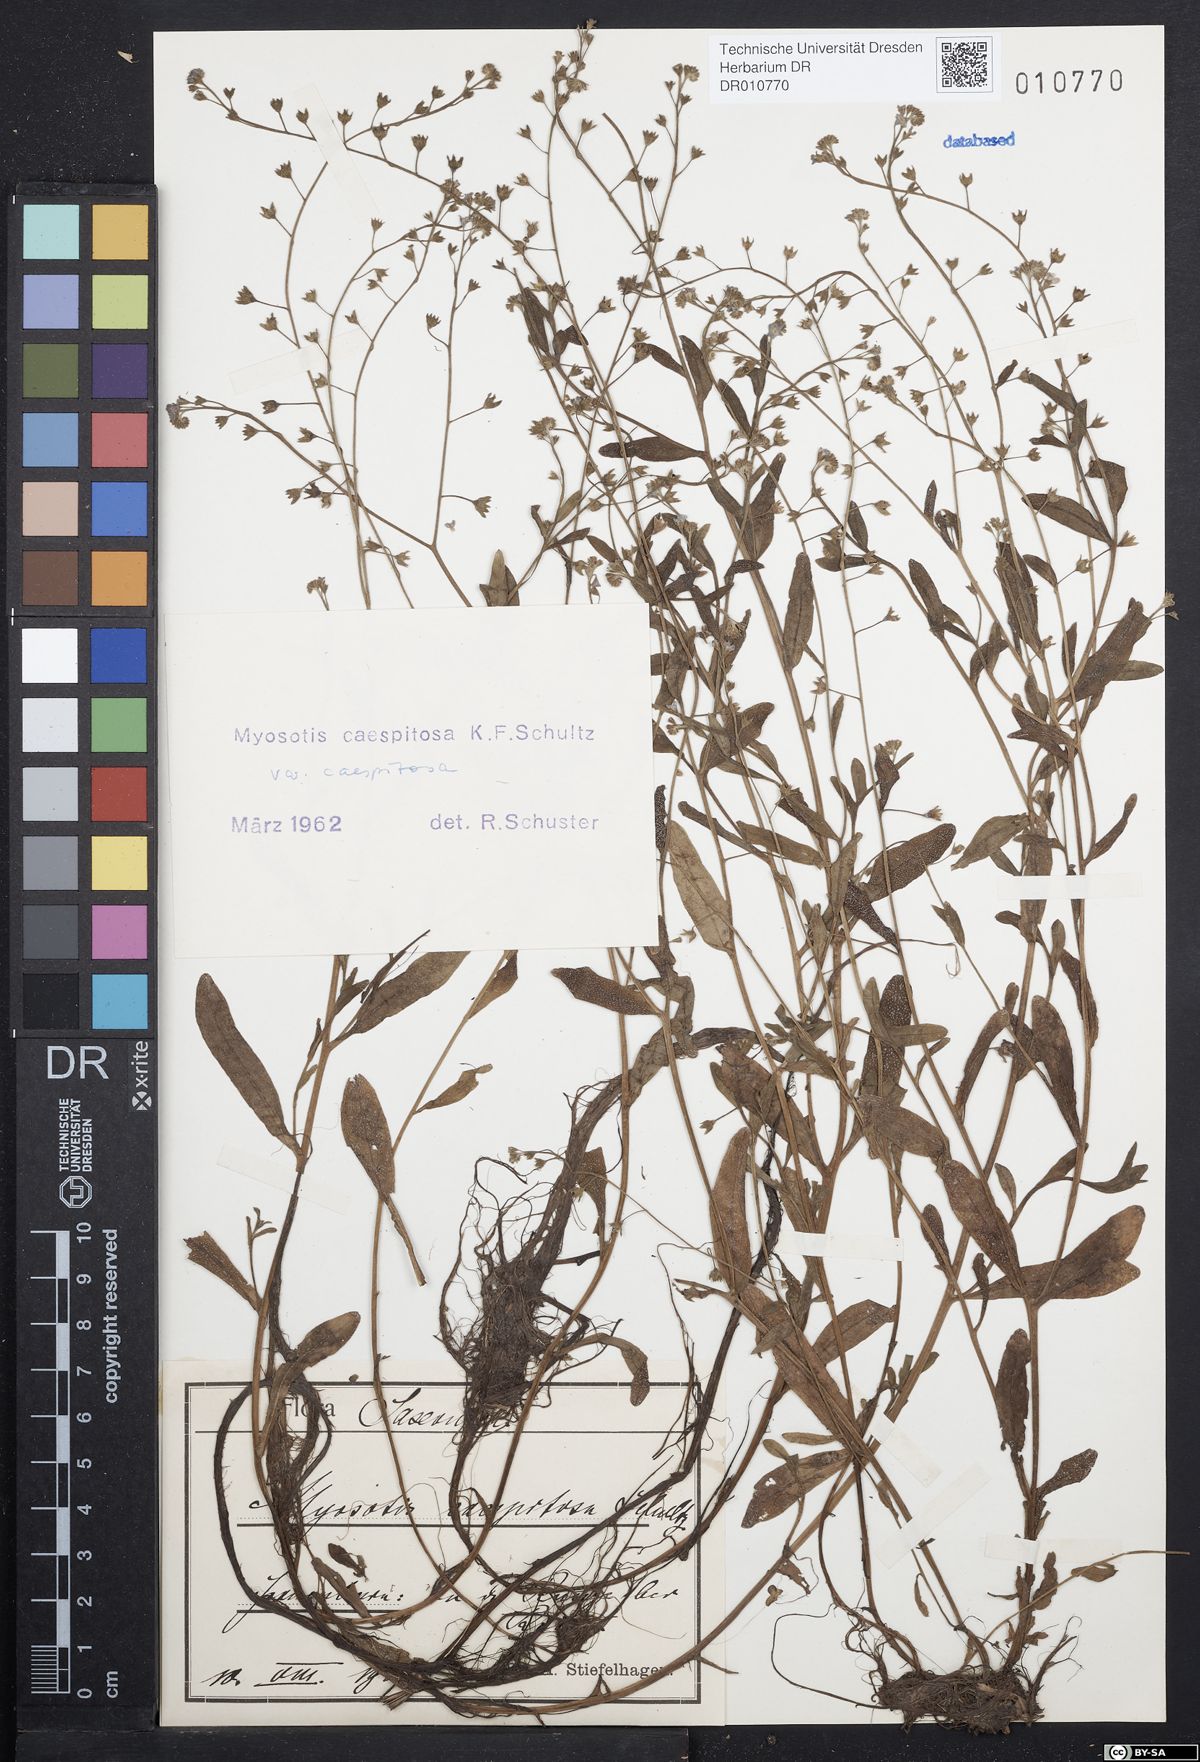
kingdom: Plantae
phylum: Tracheophyta
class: Magnoliopsida
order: Boraginales
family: Boraginaceae
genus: Myosotis
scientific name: Myosotis laxa
